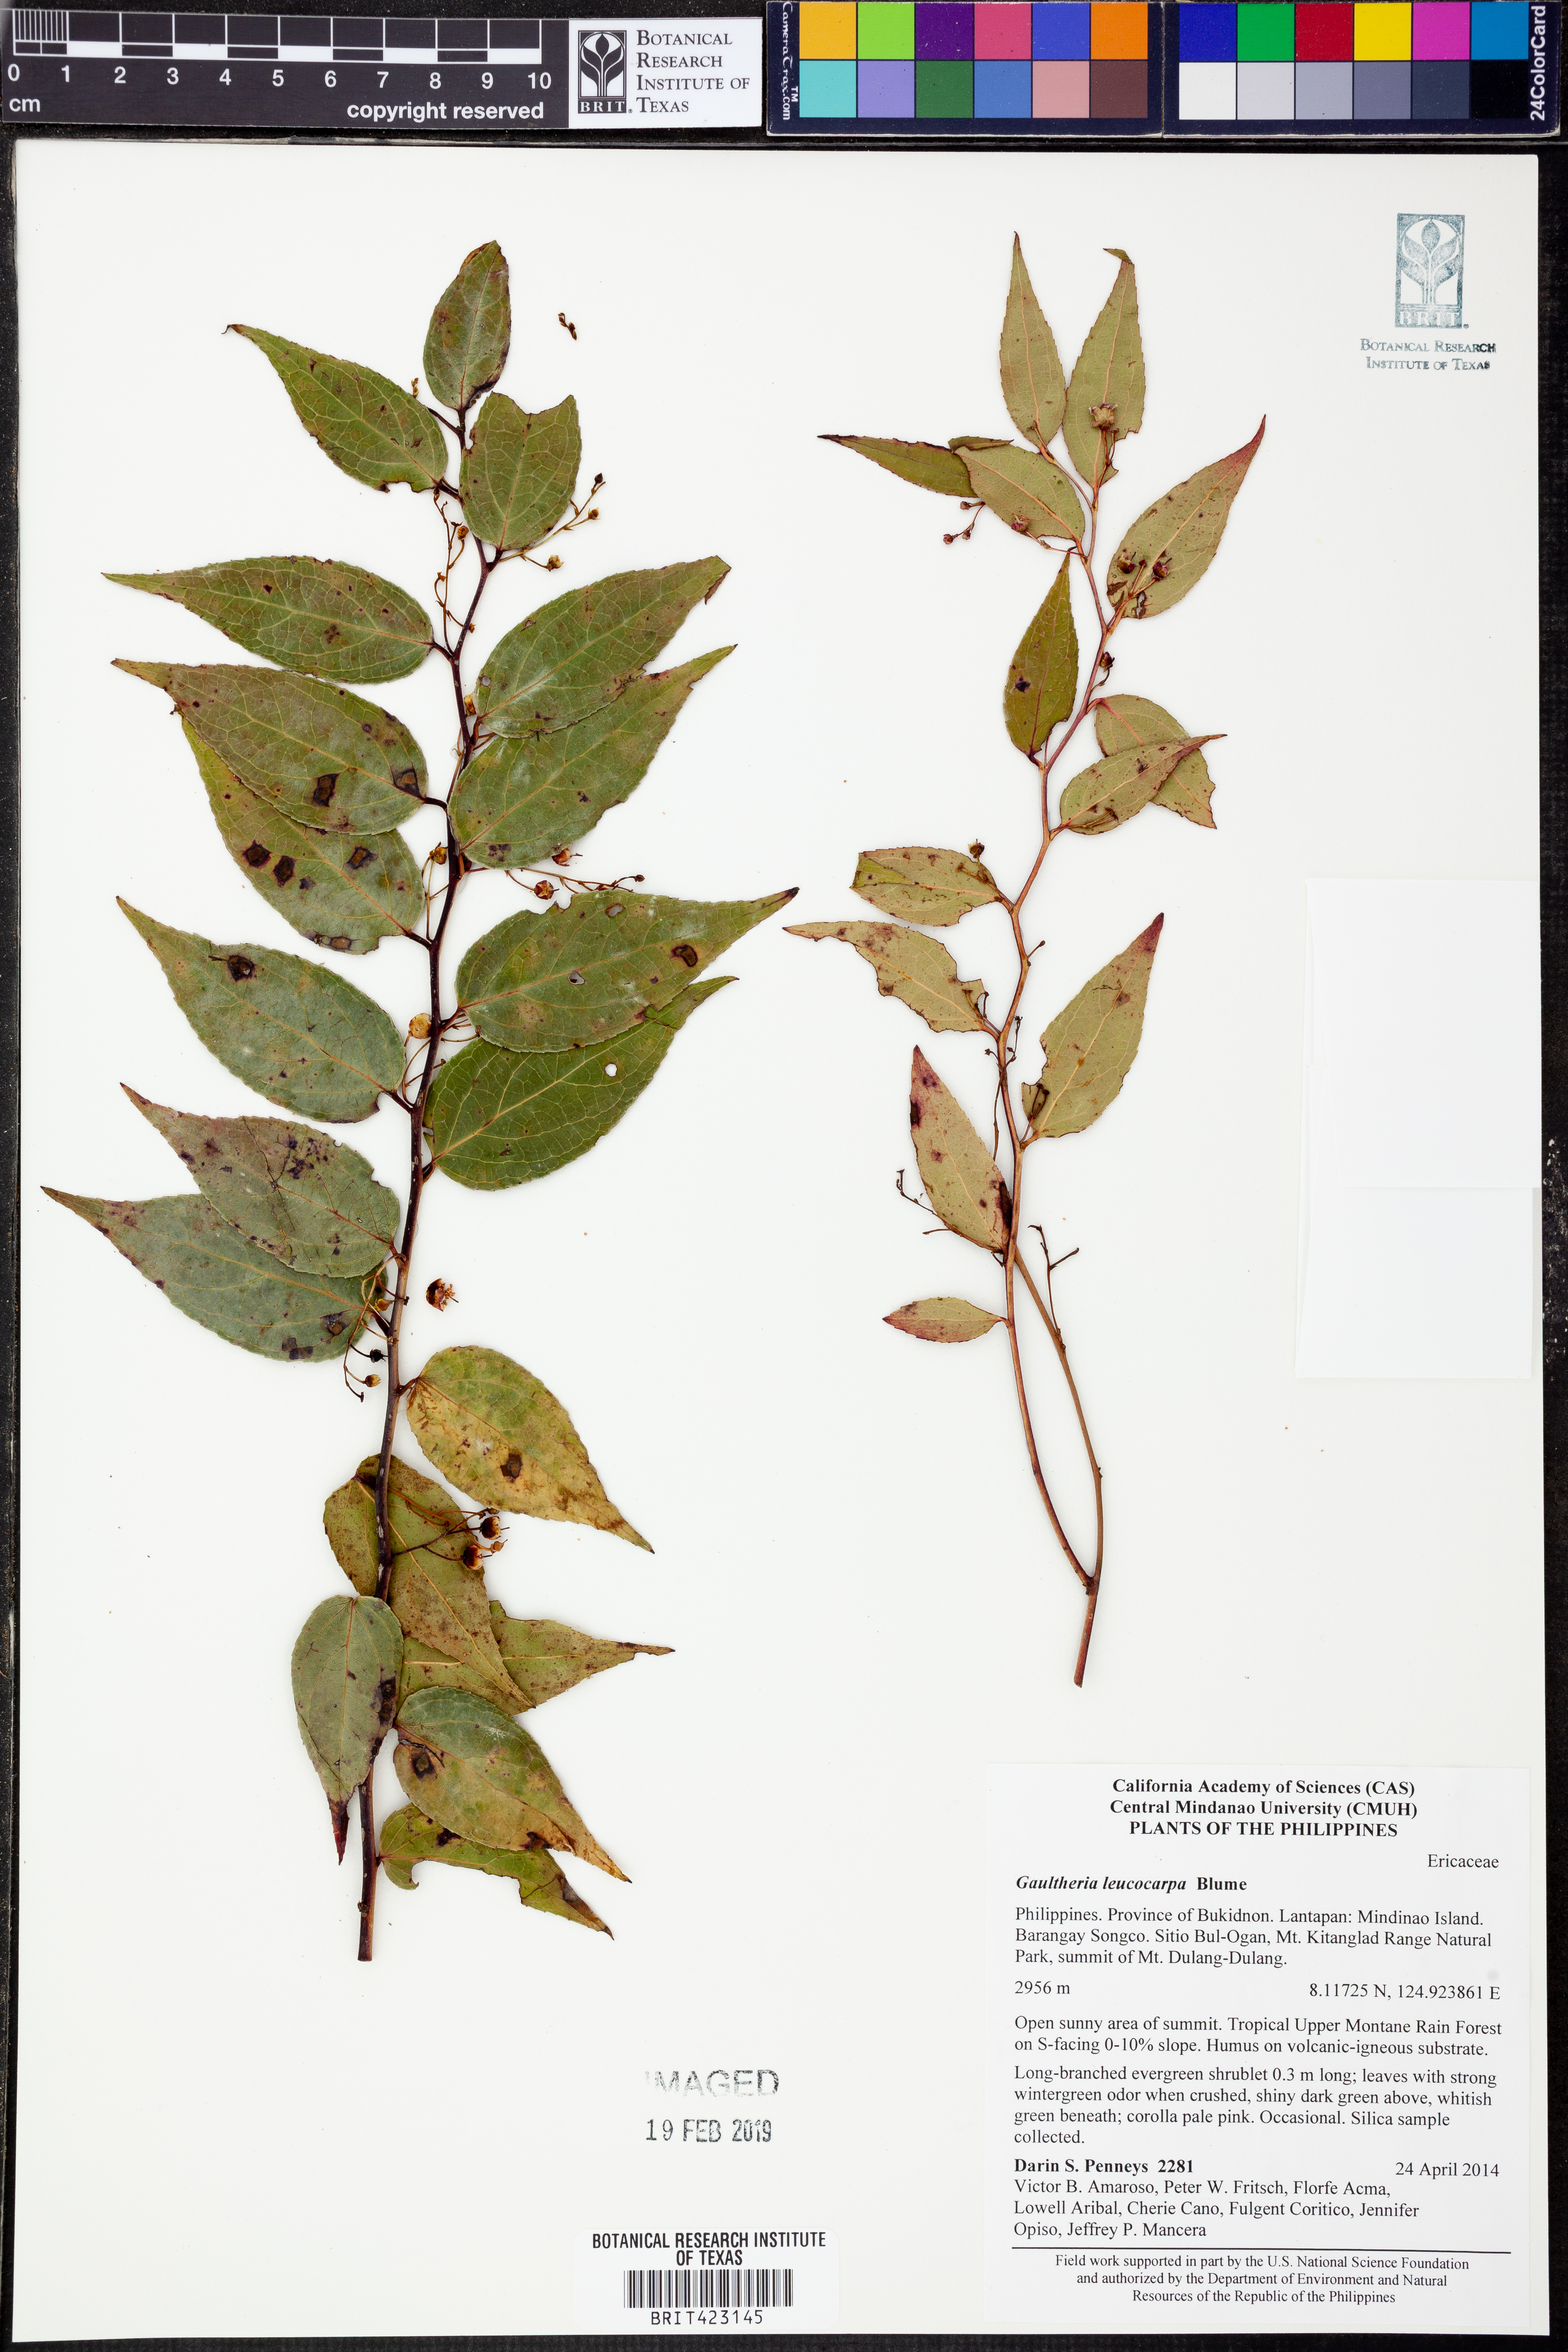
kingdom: Plantae
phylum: Tracheophyta
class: Magnoliopsida
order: Ericales
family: Ericaceae
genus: Gaultheria
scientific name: Gaultheria leucocarpa
